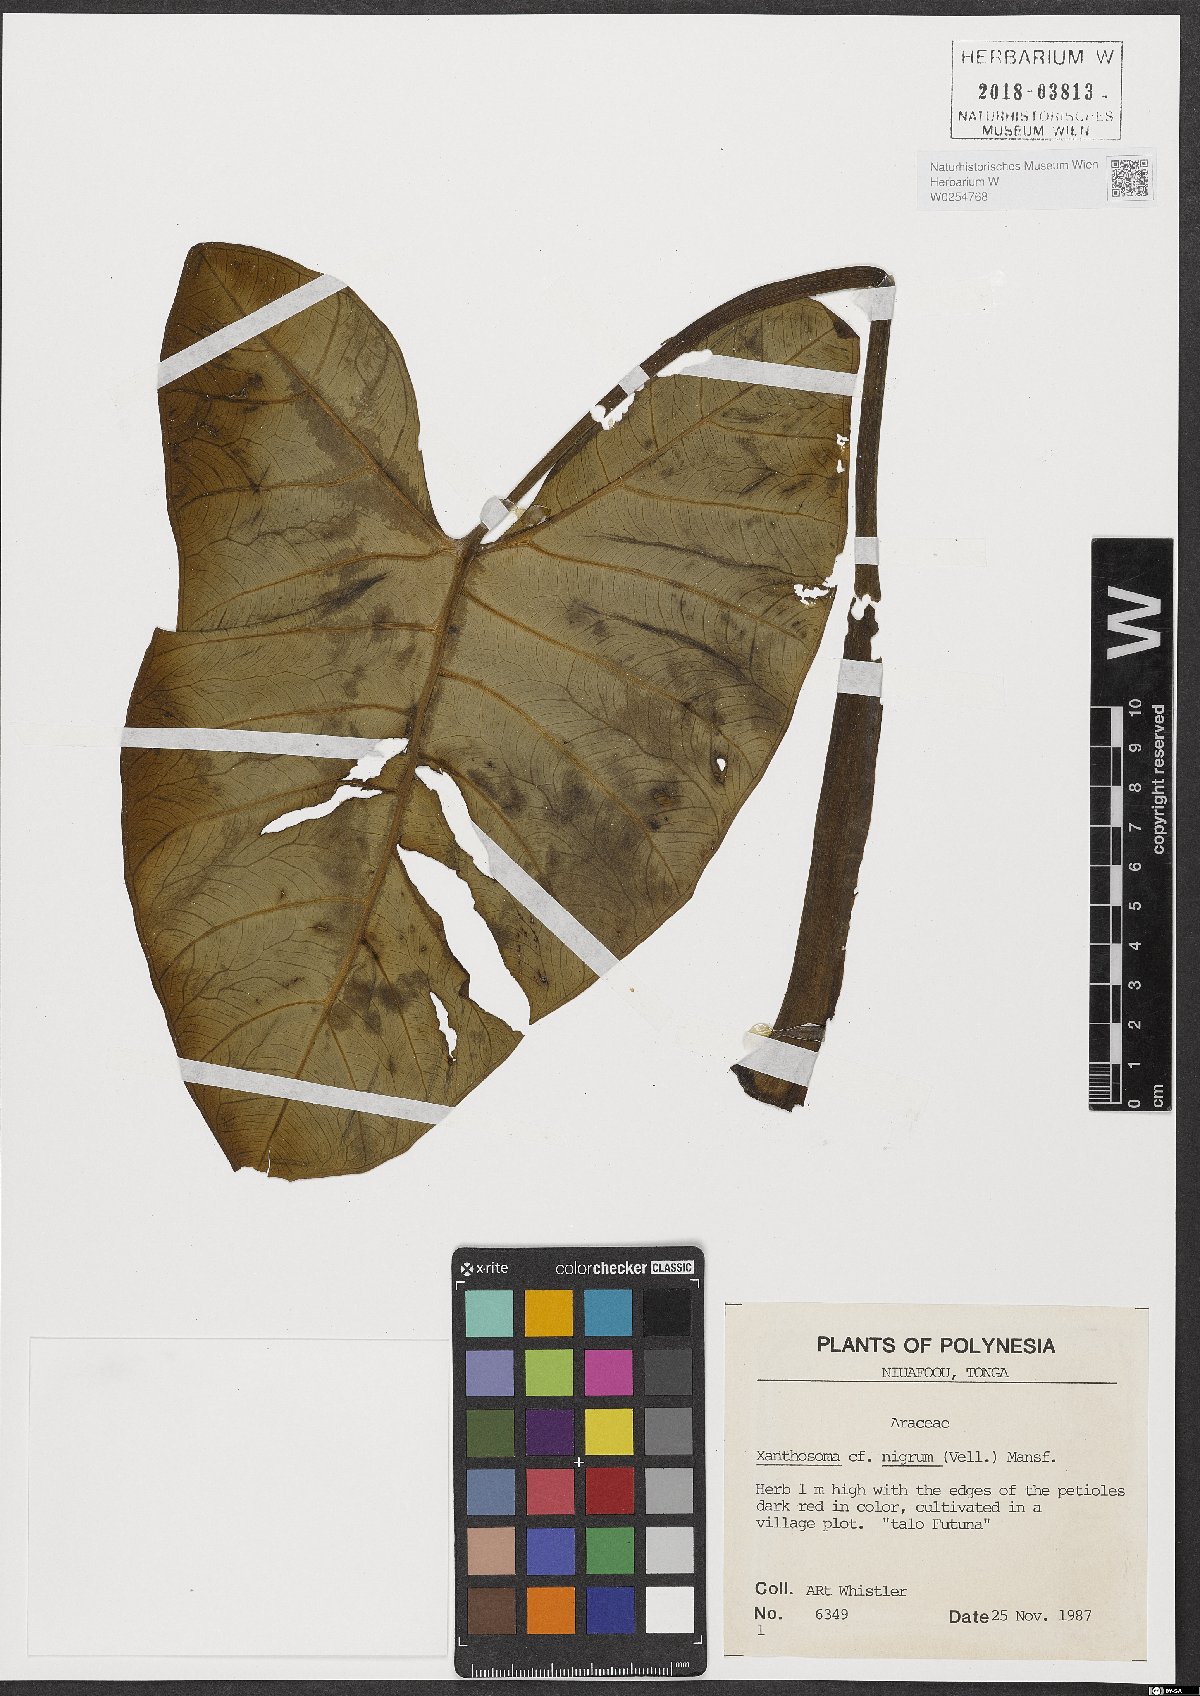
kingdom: Plantae
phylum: Tracheophyta
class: Liliopsida
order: Alismatales
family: Araceae
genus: Xanthosoma
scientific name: Xanthosoma sagittifolium
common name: Arrowleaf elephant's ear
